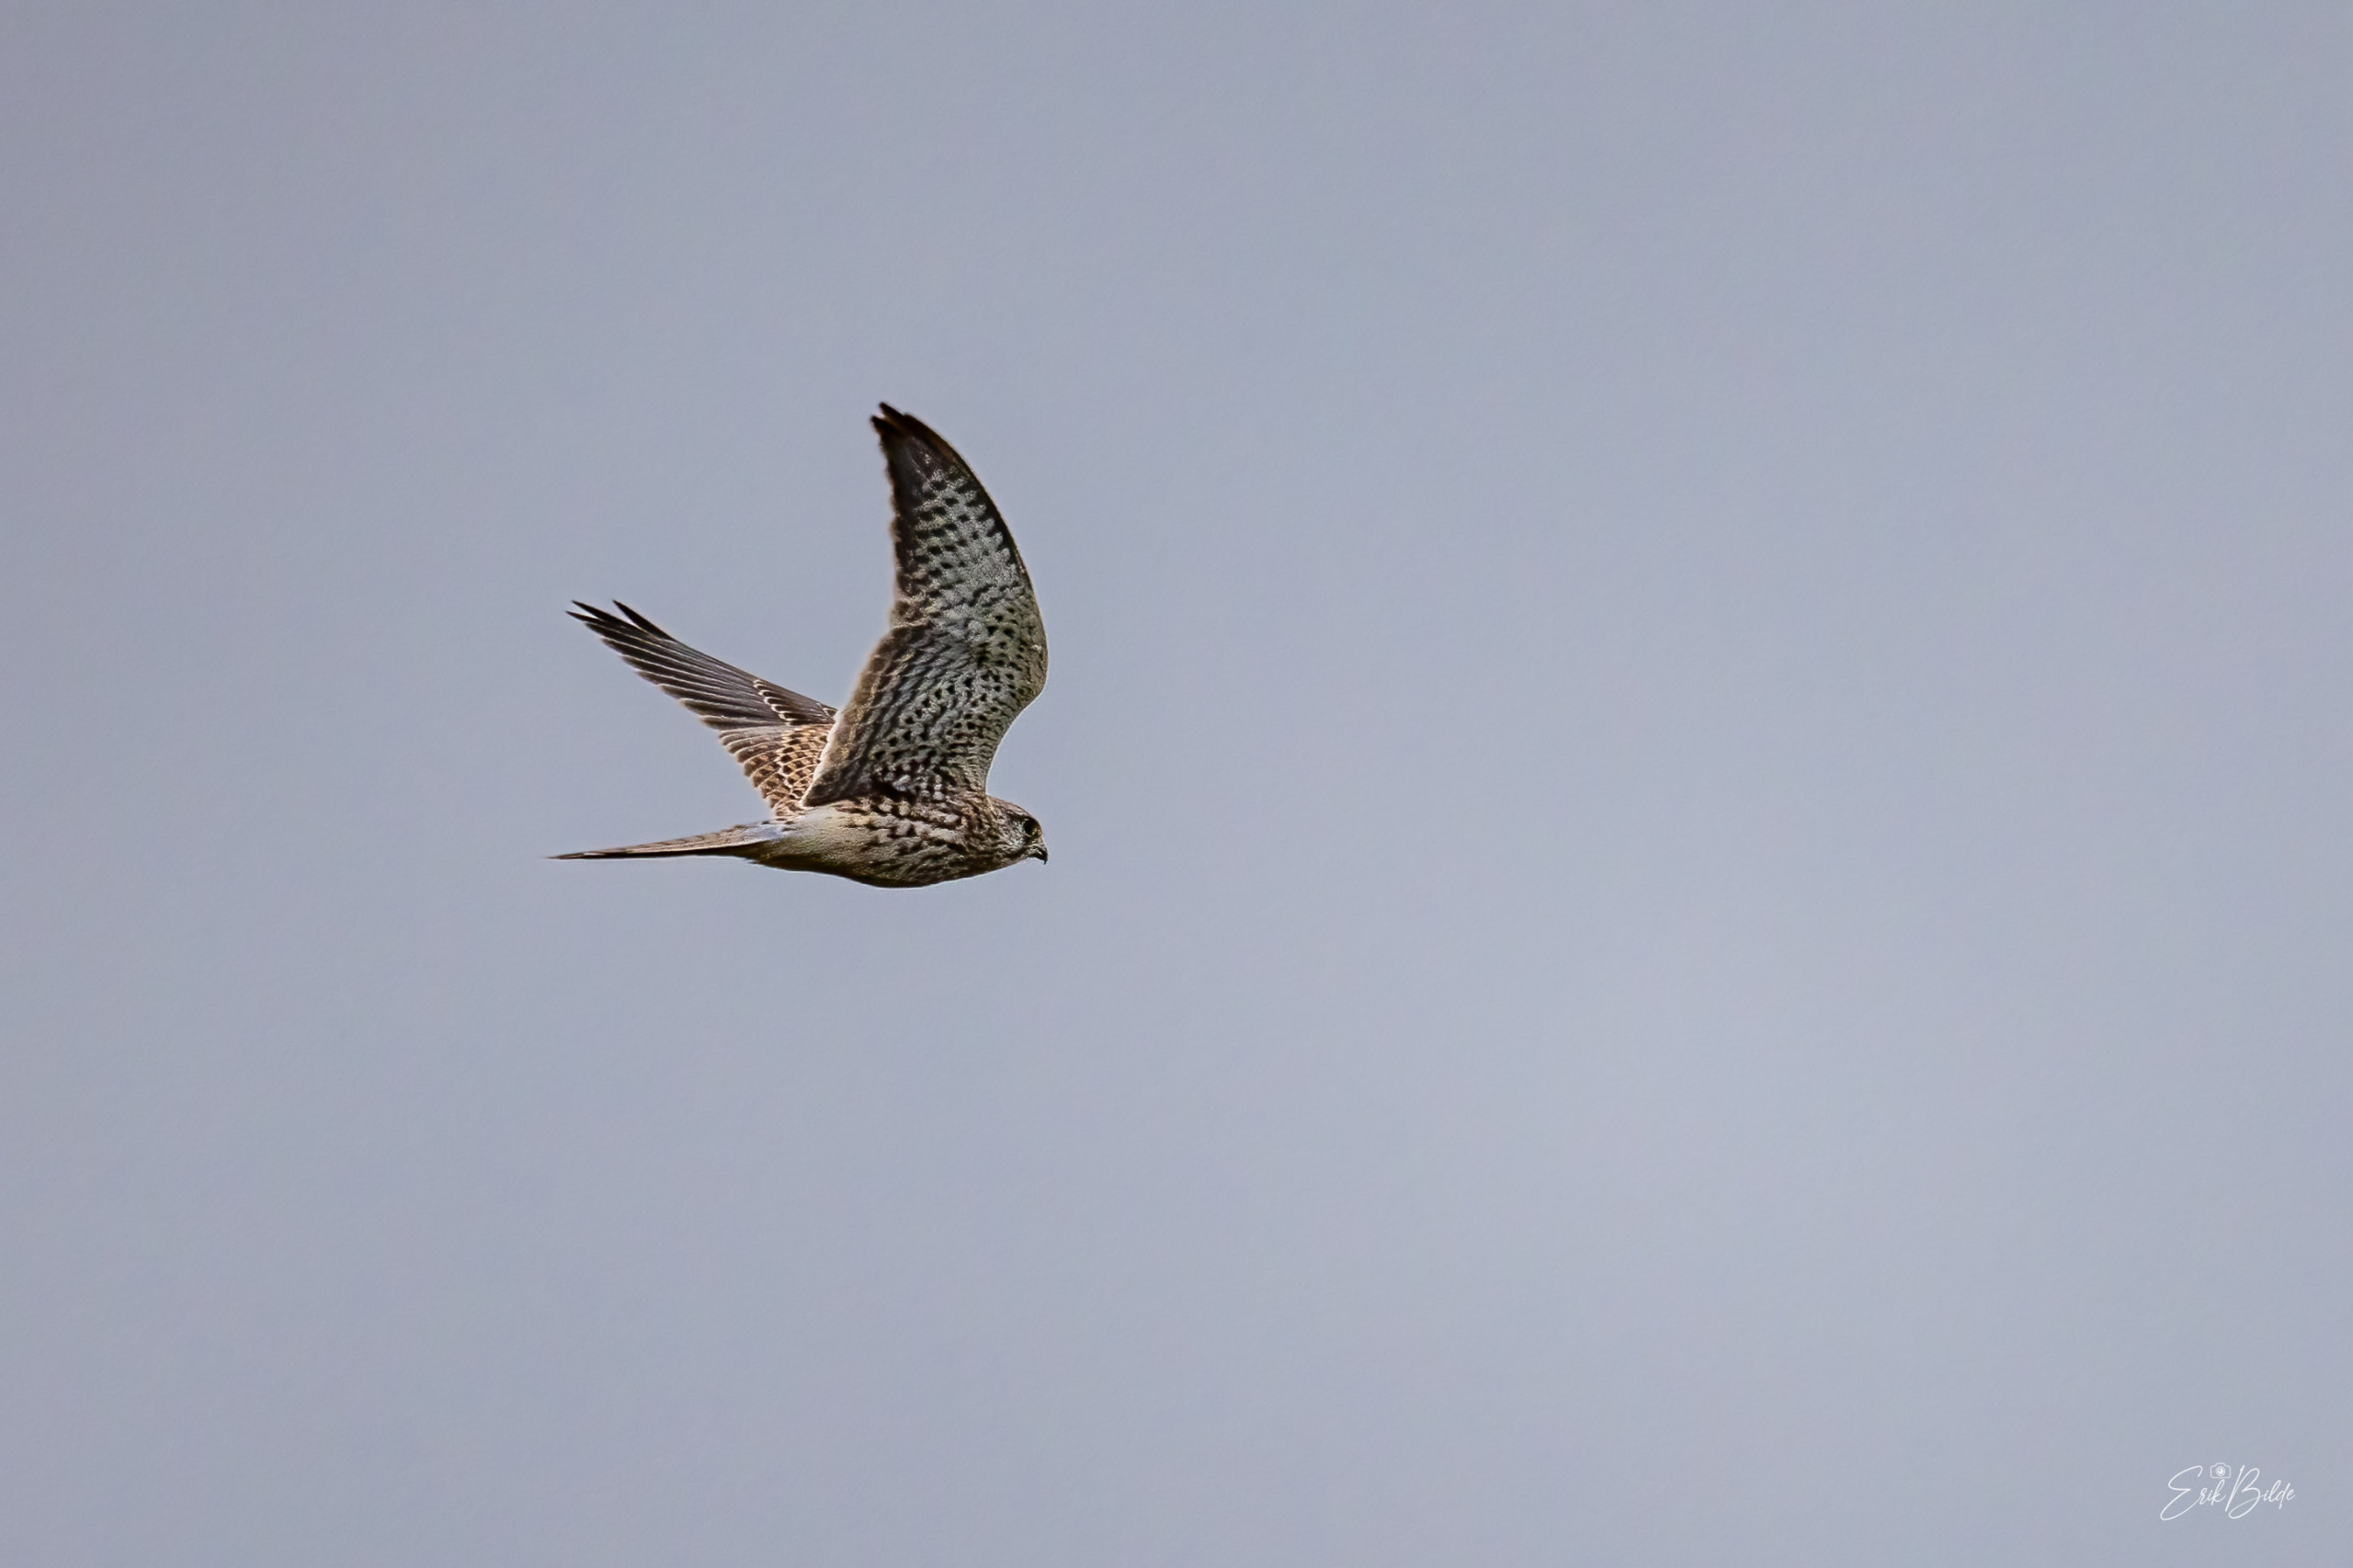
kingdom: Animalia
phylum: Chordata
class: Aves
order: Falconiformes
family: Falconidae
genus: Falco
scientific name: Falco tinnunculus
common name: Tårnfalk
